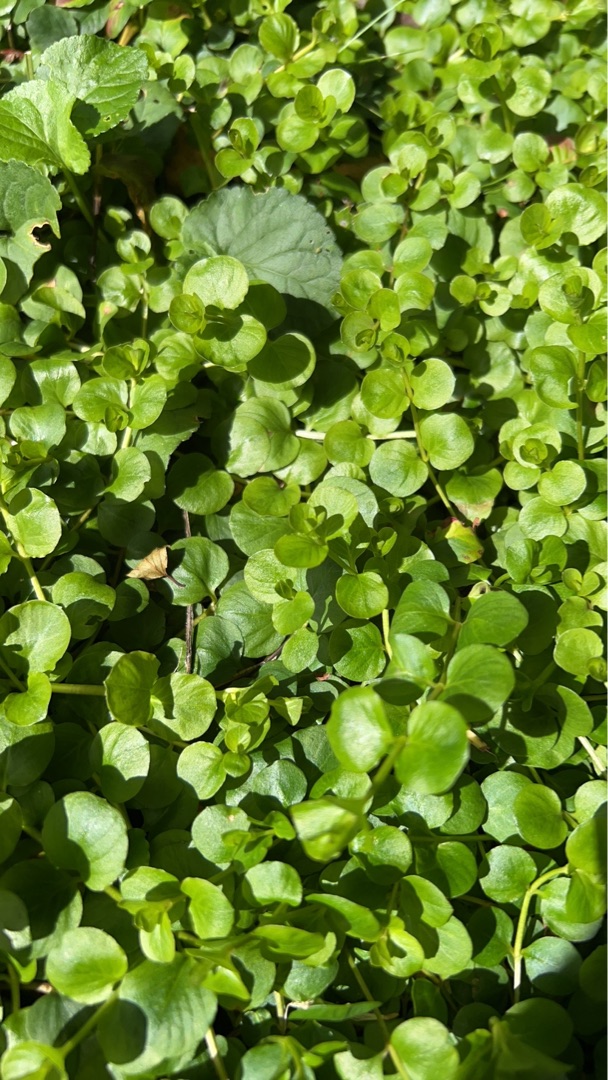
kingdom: Plantae
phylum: Tracheophyta
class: Magnoliopsida
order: Ericales
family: Primulaceae
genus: Lysimachia
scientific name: Lysimachia nummularia
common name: Pengebladet fredløs
